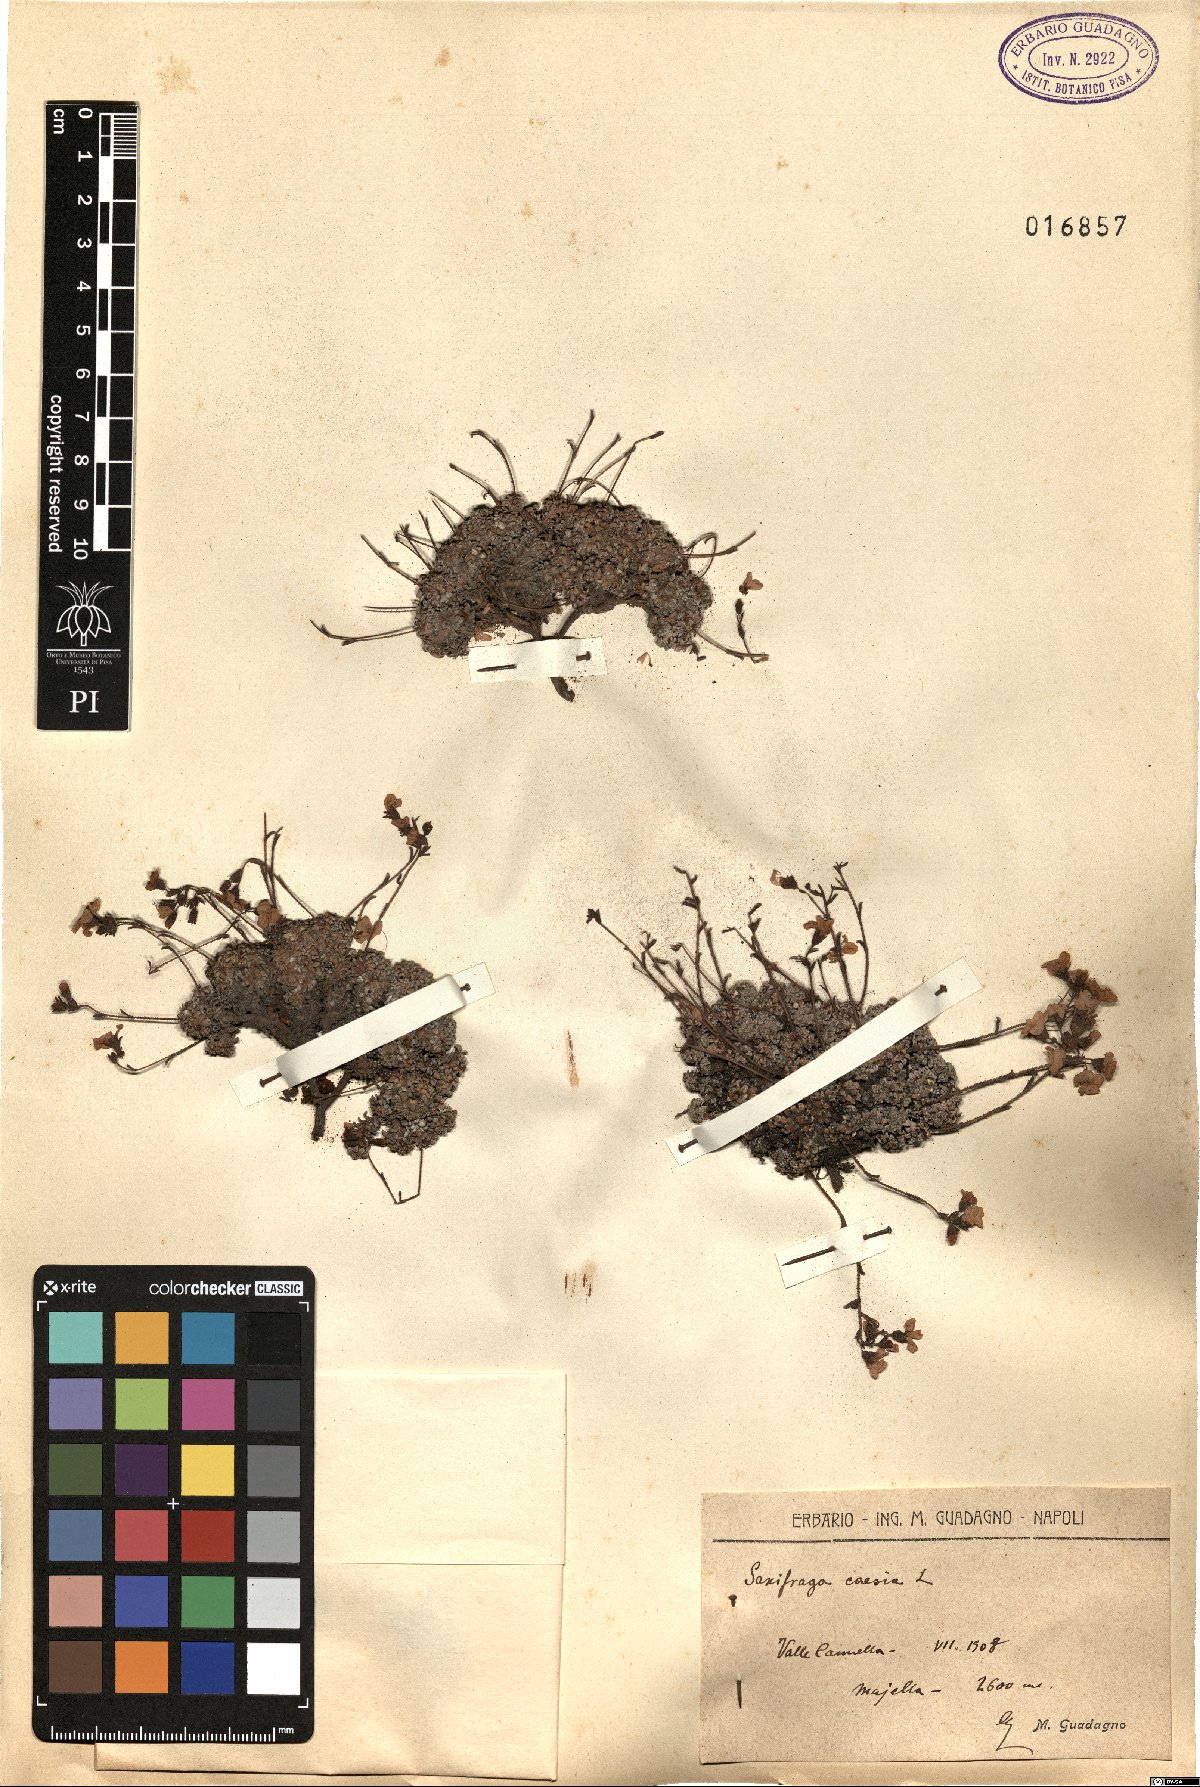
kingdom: Plantae
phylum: Tracheophyta
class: Magnoliopsida
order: Saxifragales
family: Saxifragaceae
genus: Saxifraga
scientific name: Saxifraga caesia
